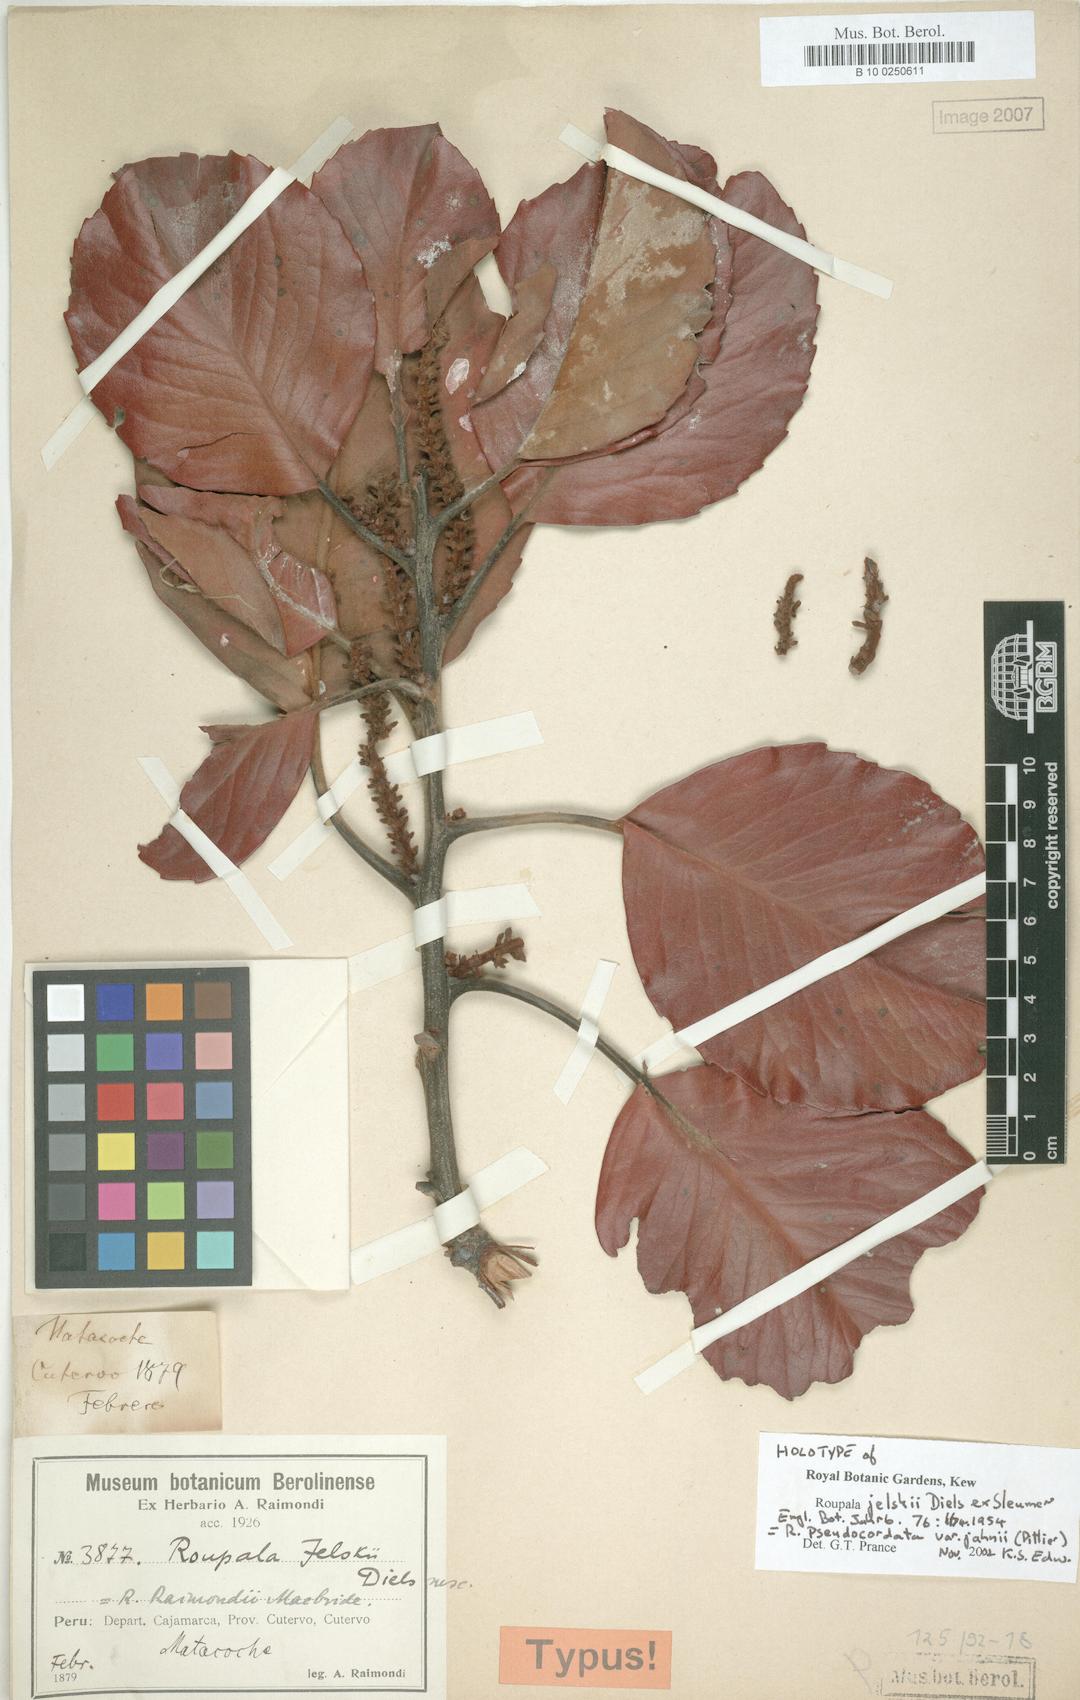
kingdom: Plantae
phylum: Tracheophyta
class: Magnoliopsida
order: Proteales
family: Proteaceae
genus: Roupala
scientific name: Roupala pseudocordata
